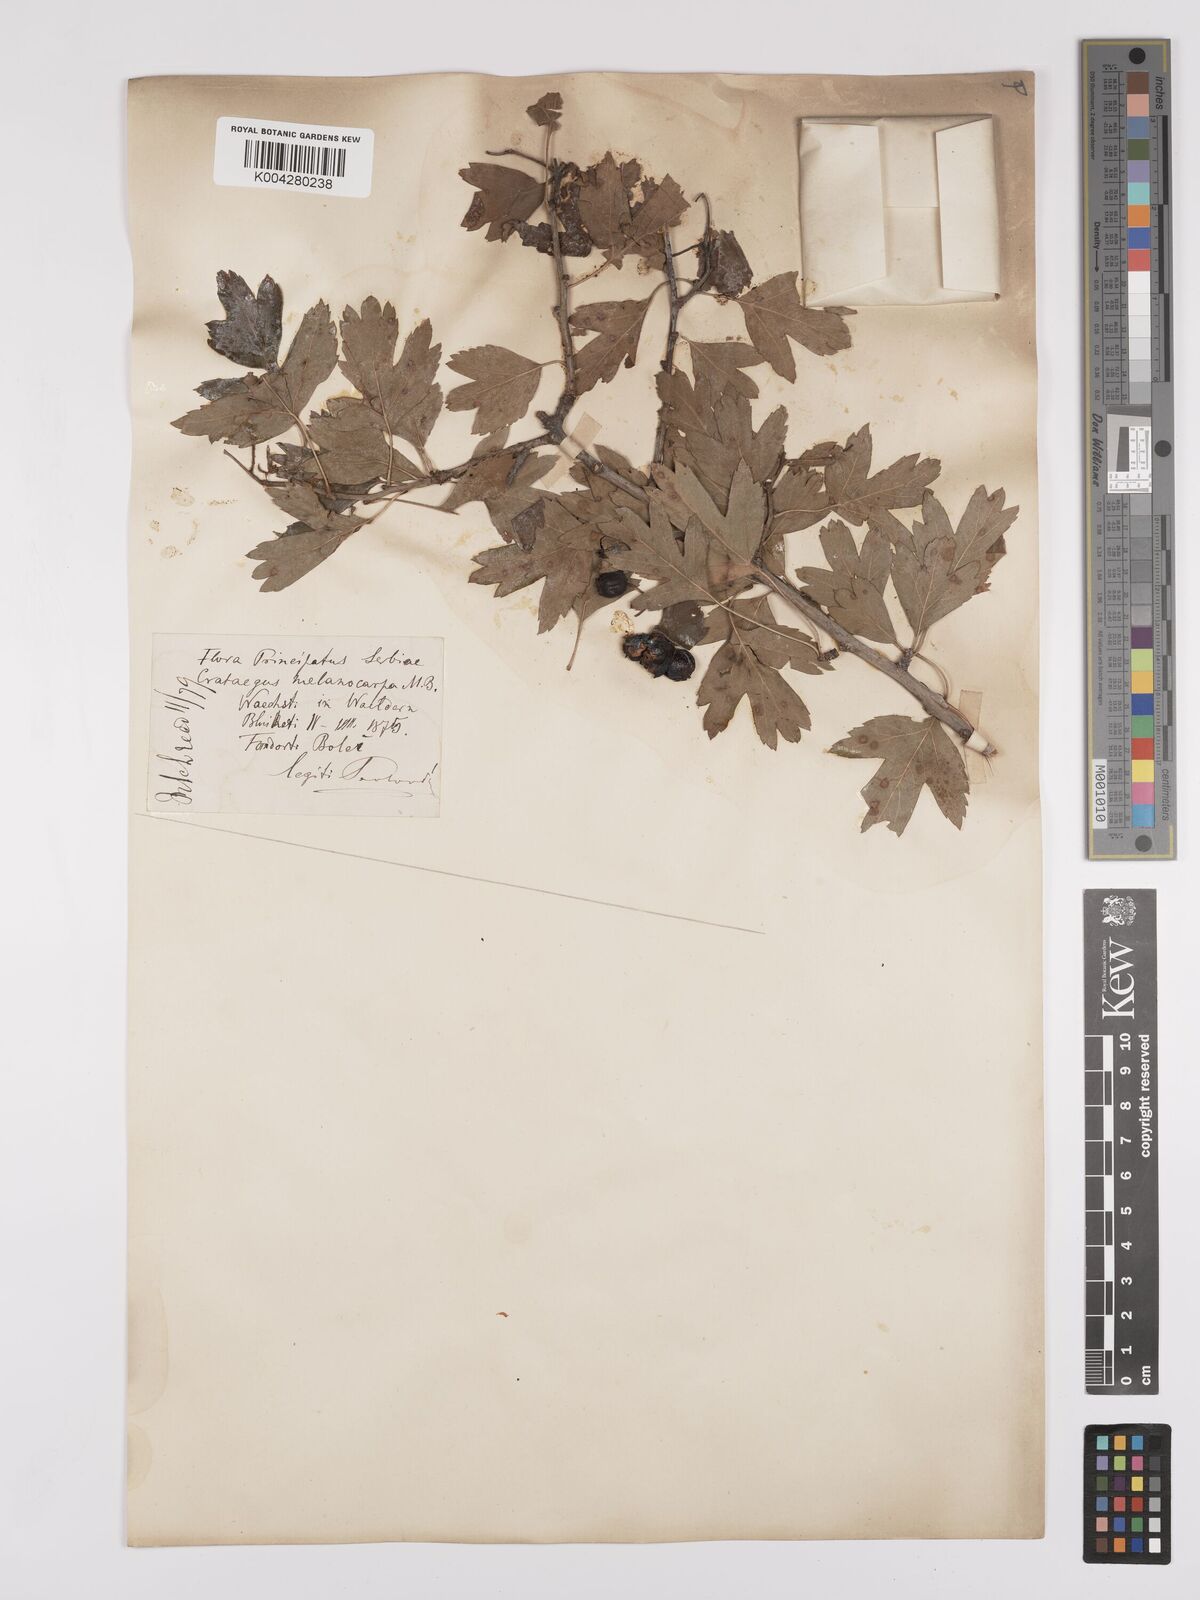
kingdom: Plantae
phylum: Tracheophyta
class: Magnoliopsida
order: Rosales
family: Rosaceae
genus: Crataegus
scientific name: Crataegus pentagyna
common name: Small-flowered black hawthorn
